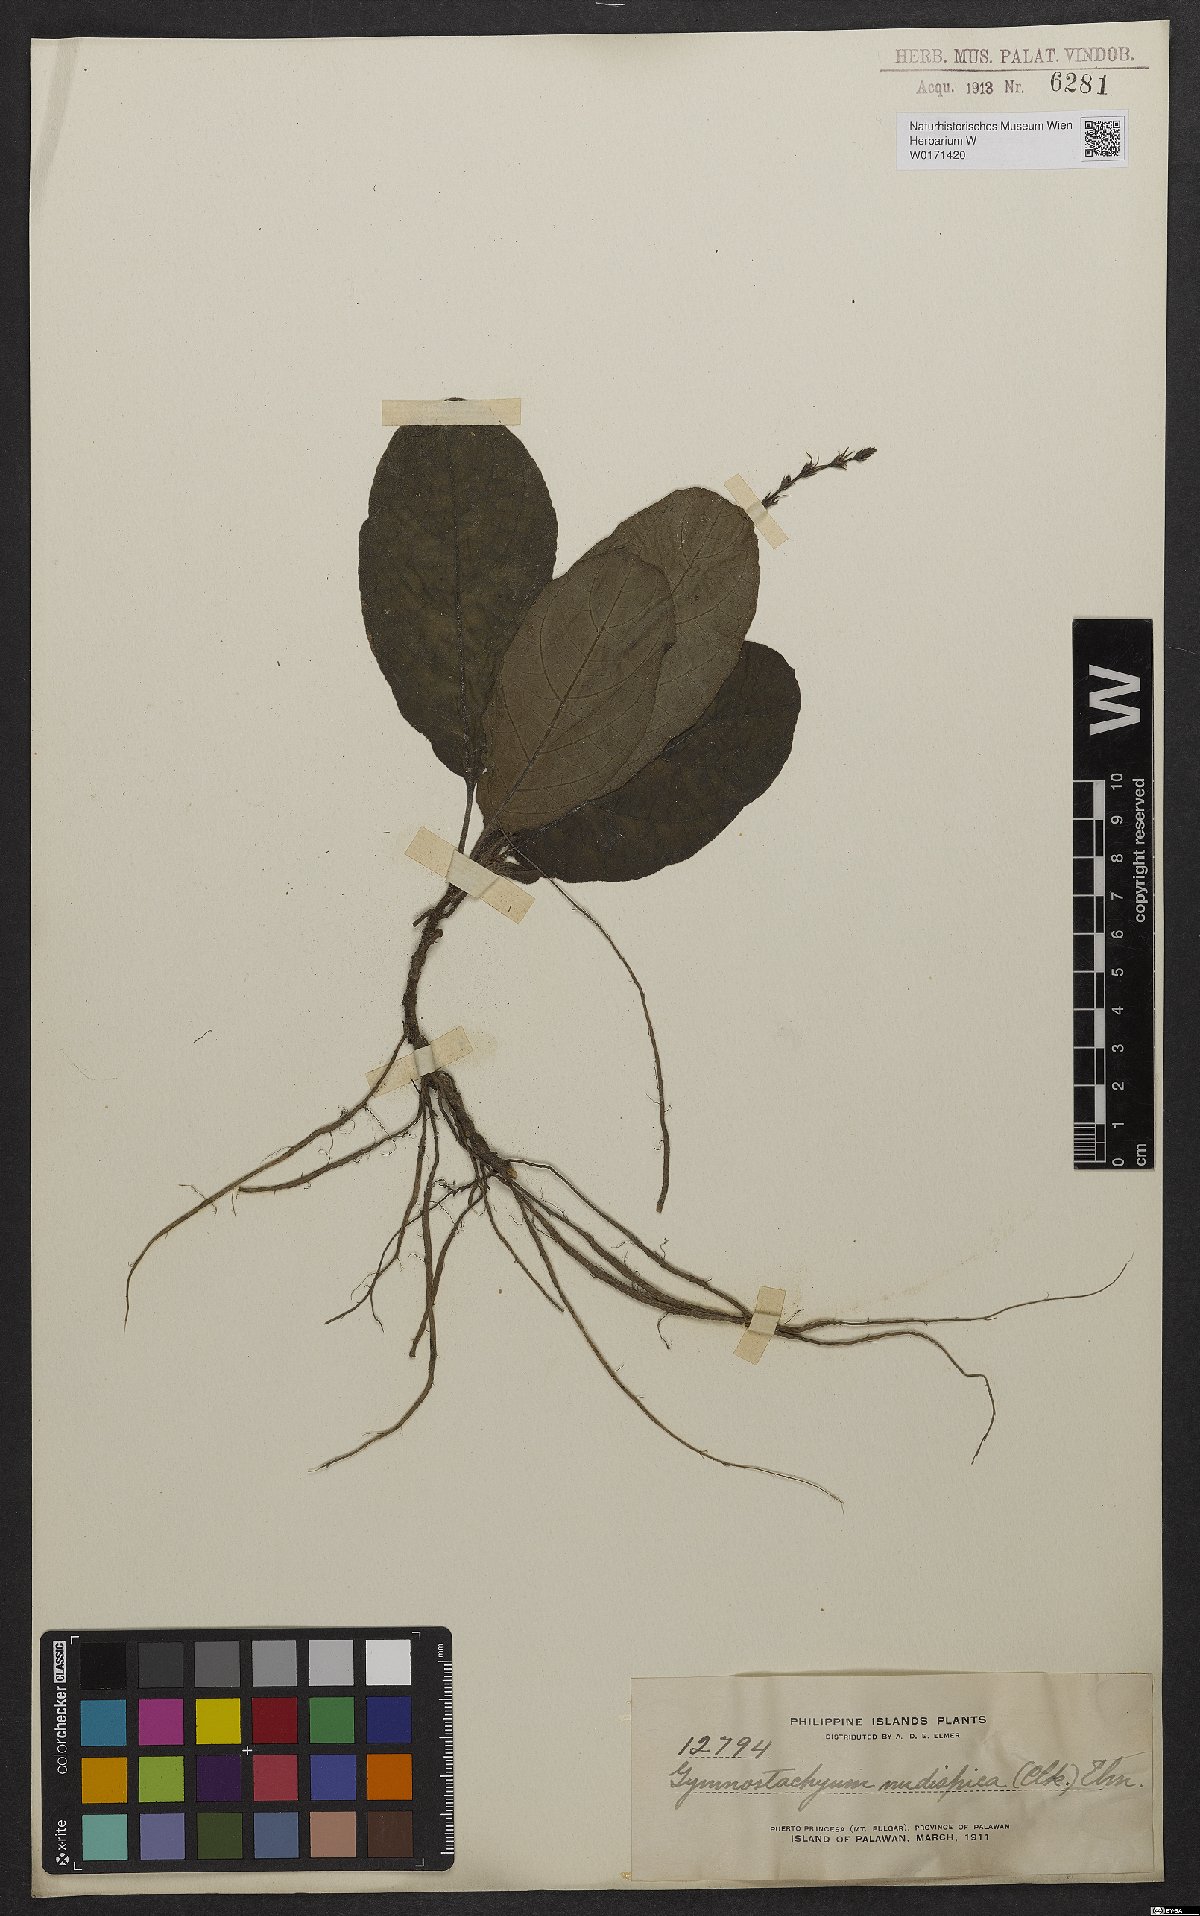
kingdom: Plantae
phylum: Tracheophyta
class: Magnoliopsida
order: Lamiales
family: Acanthaceae
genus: Pararuellia
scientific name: Pararuellia nudispica
